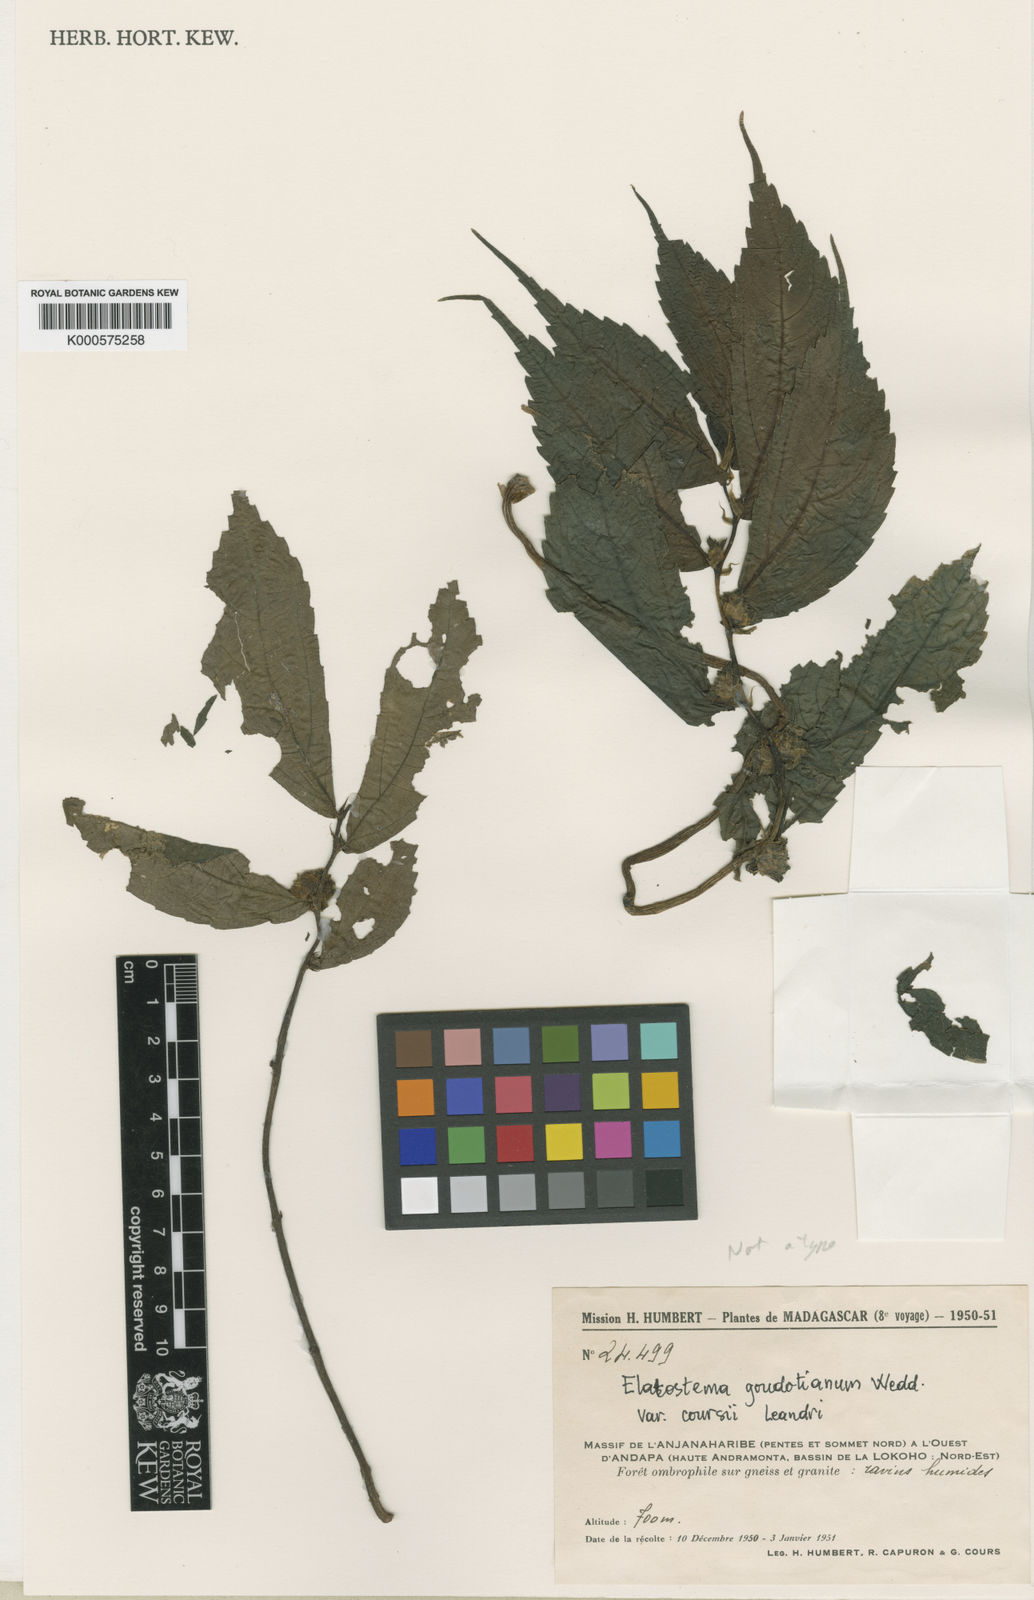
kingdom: Plantae
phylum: Tracheophyta
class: Magnoliopsida
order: Rosales
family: Urticaceae
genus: Elatostema
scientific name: Elatostema goudotianum
